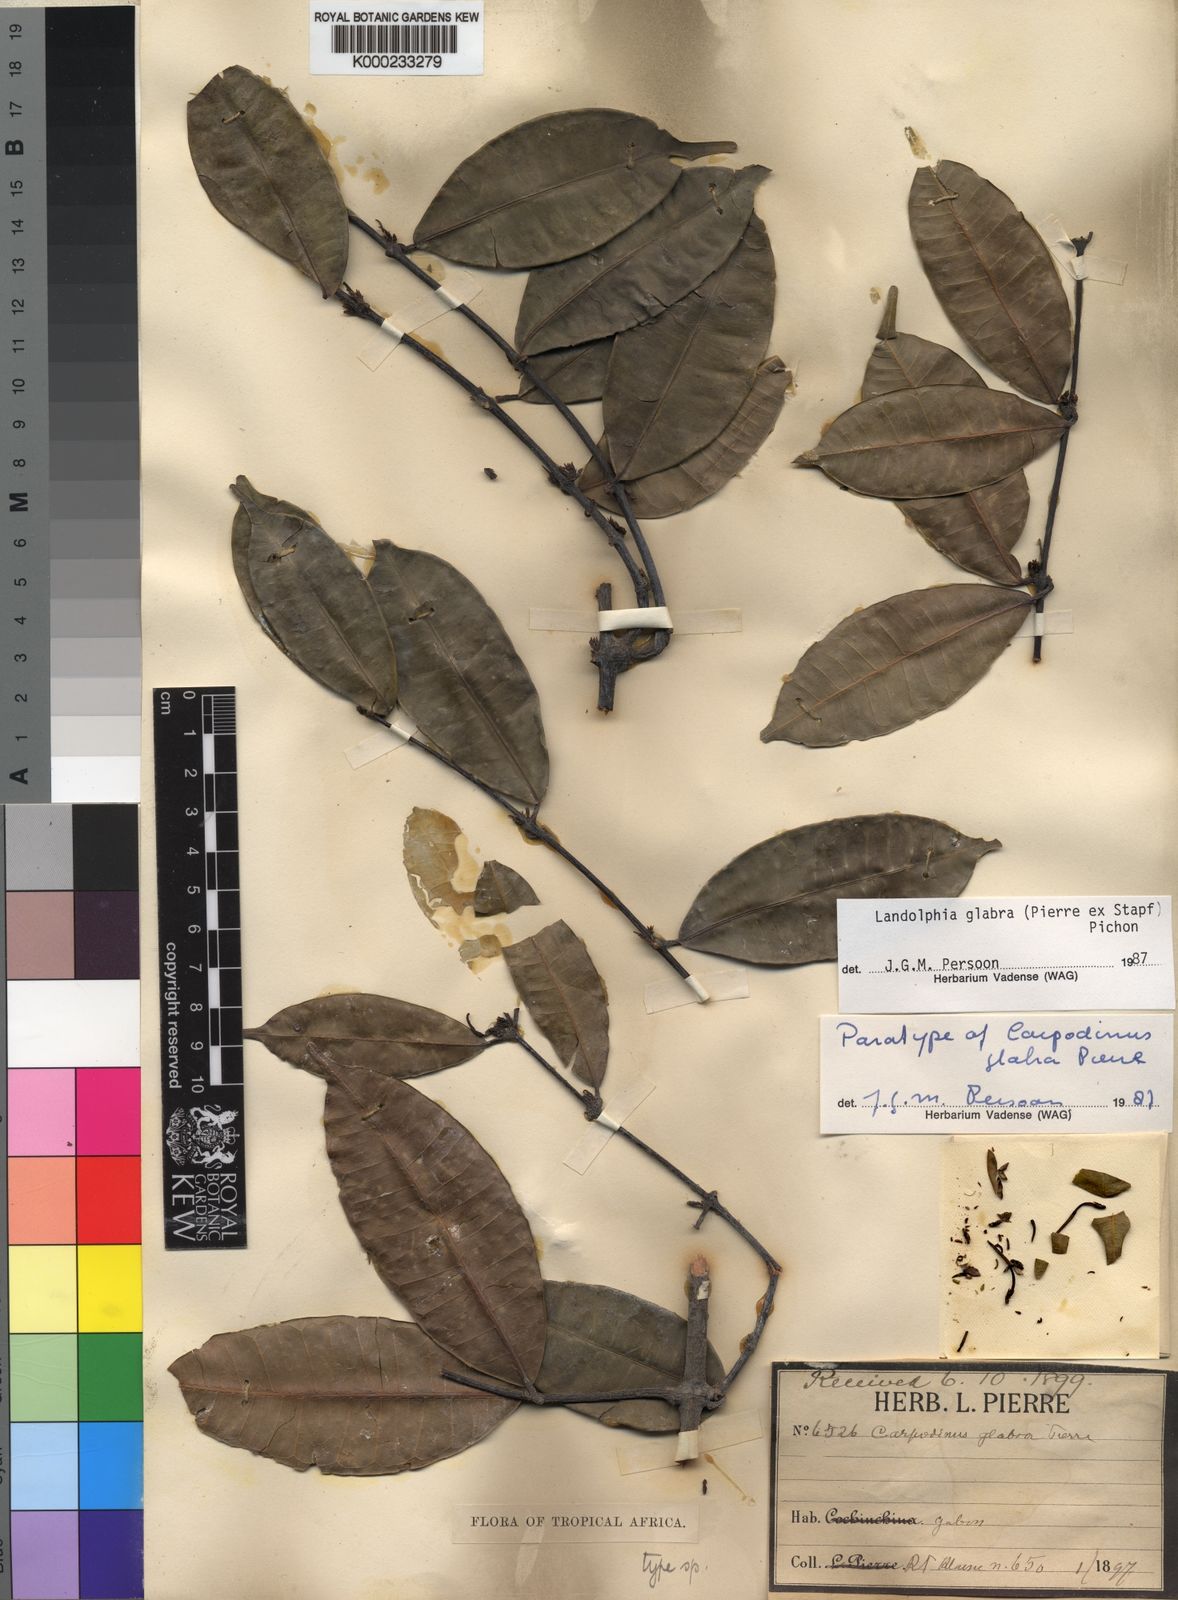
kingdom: Plantae
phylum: Tracheophyta
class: Magnoliopsida
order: Gentianales
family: Apocynaceae
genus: Landolphia
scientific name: Landolphia glabra
